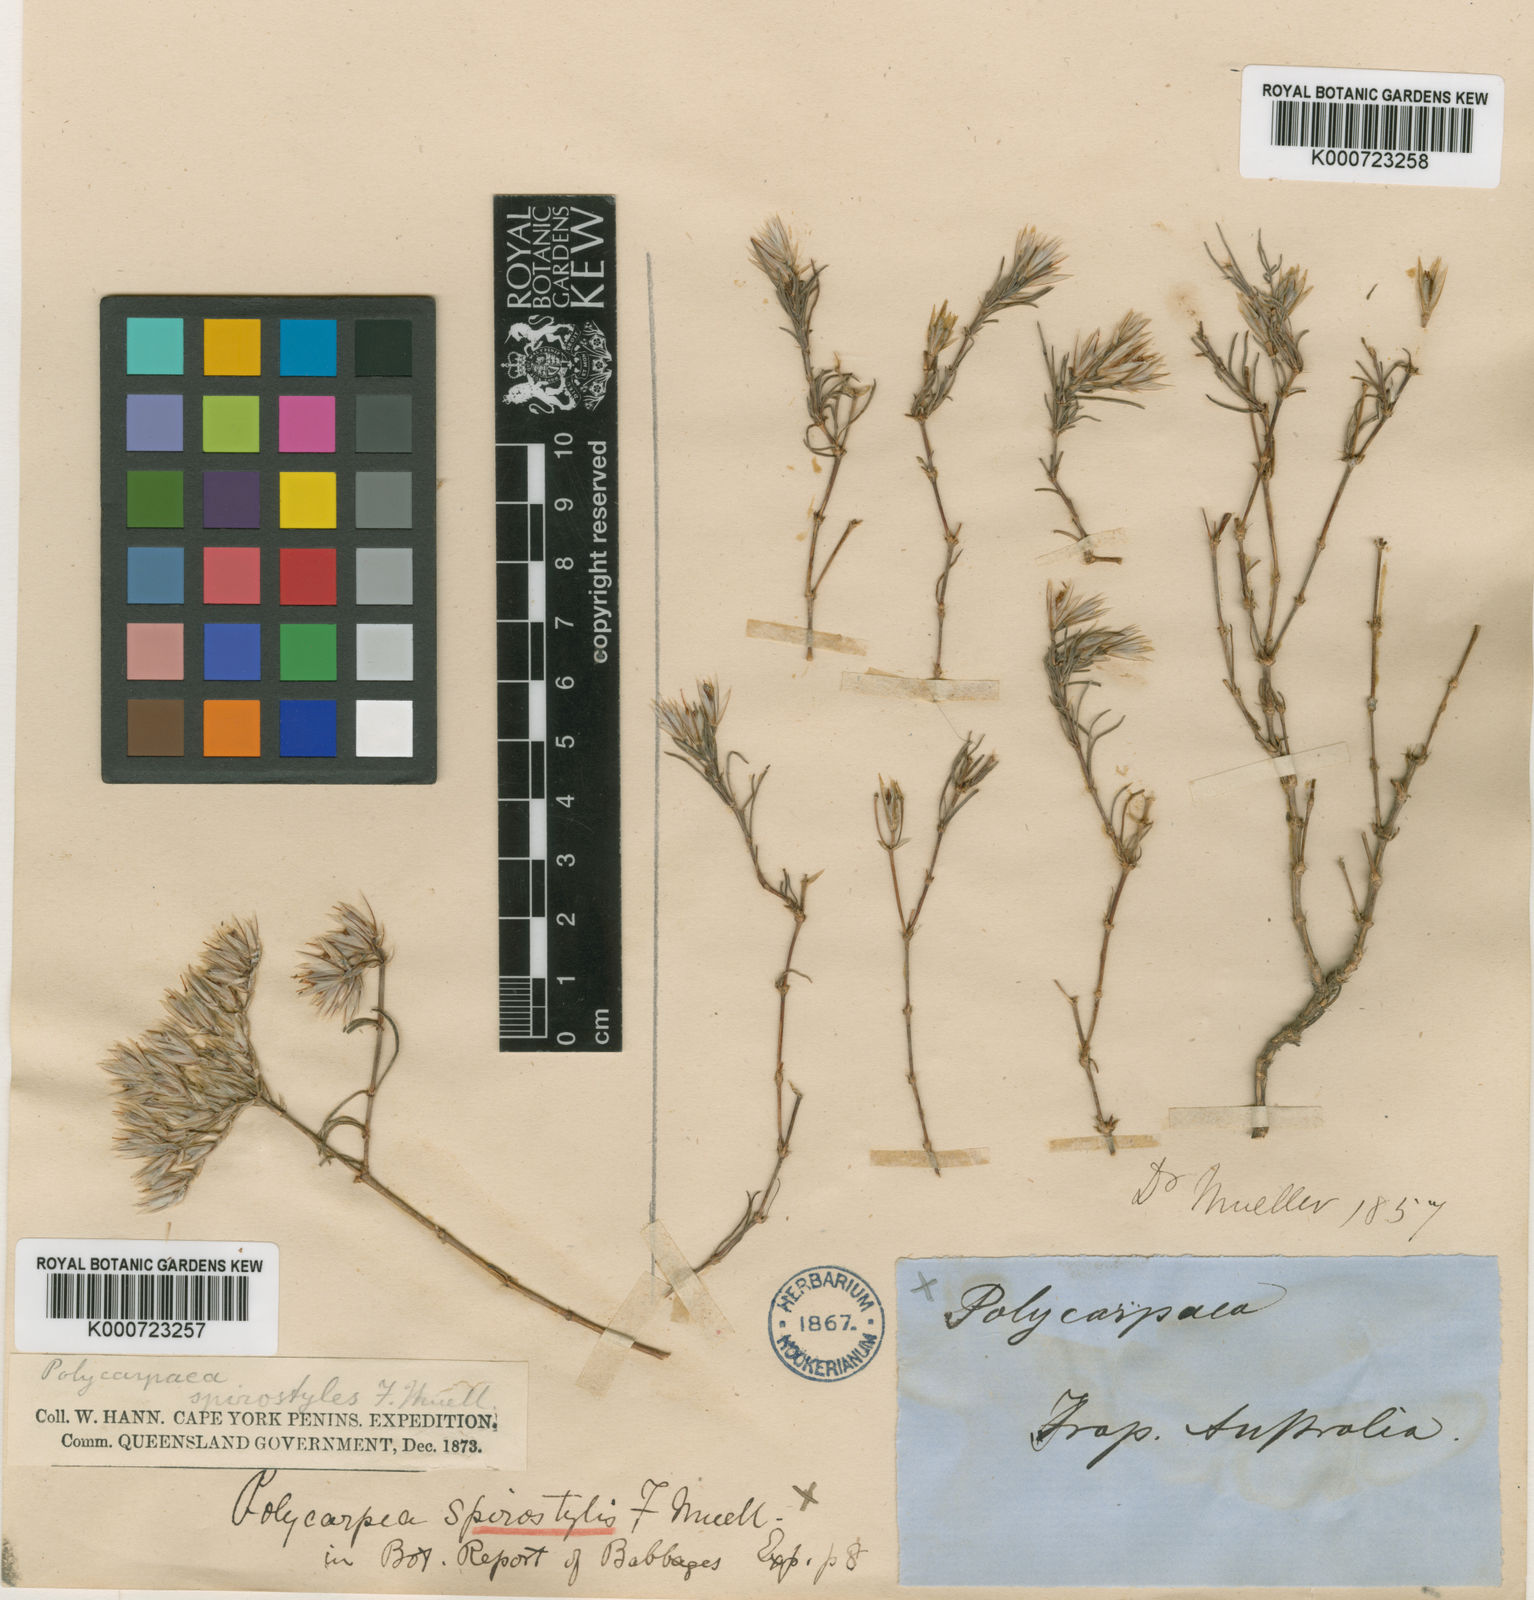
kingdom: Plantae
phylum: Tracheophyta
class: Magnoliopsida
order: Caryophyllales
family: Caryophyllaceae
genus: Polycarpaea
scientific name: Polycarpaea spirostylis
